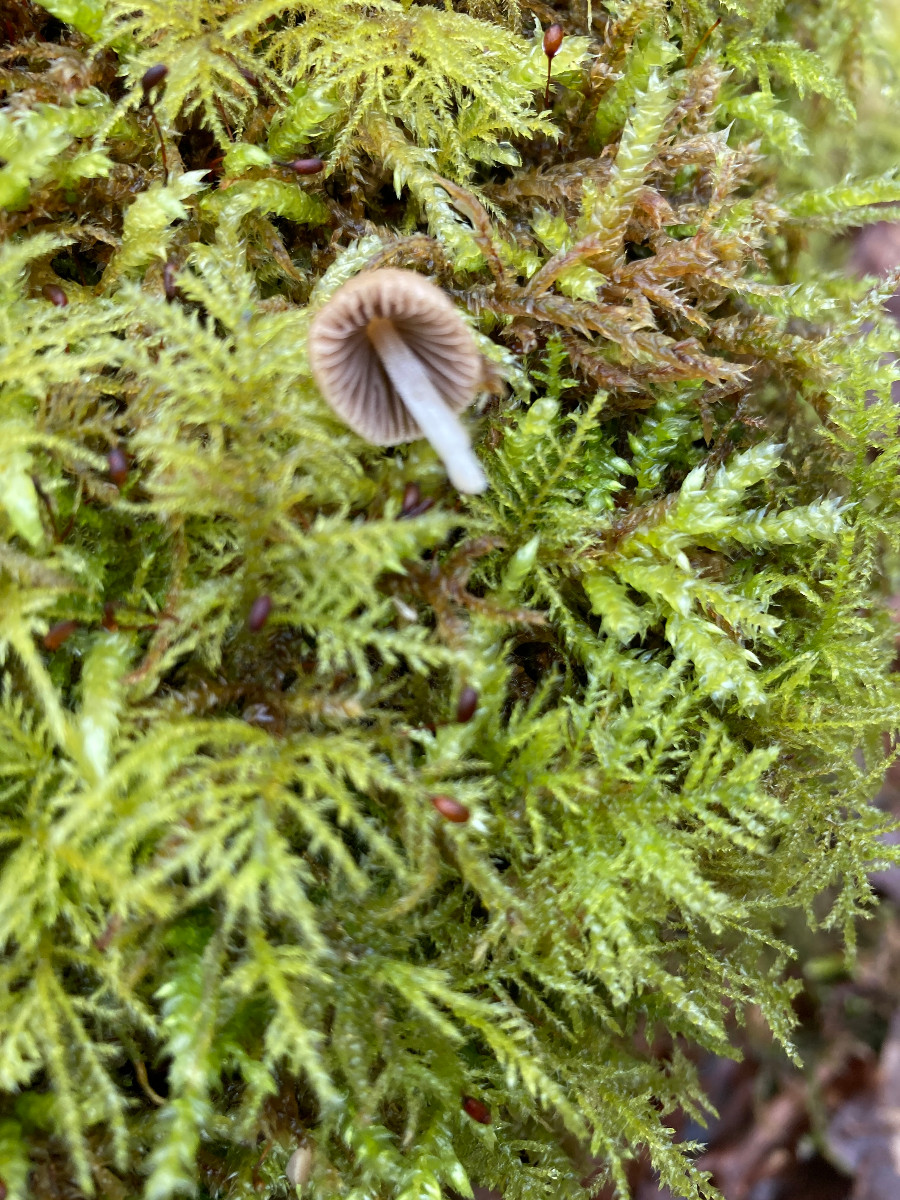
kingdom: Fungi
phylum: Basidiomycota
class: Agaricomycetes
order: Agaricales
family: Psathyrellaceae
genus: Coprinellus
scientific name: Coprinellus disseminatus
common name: bredsået blækhat
